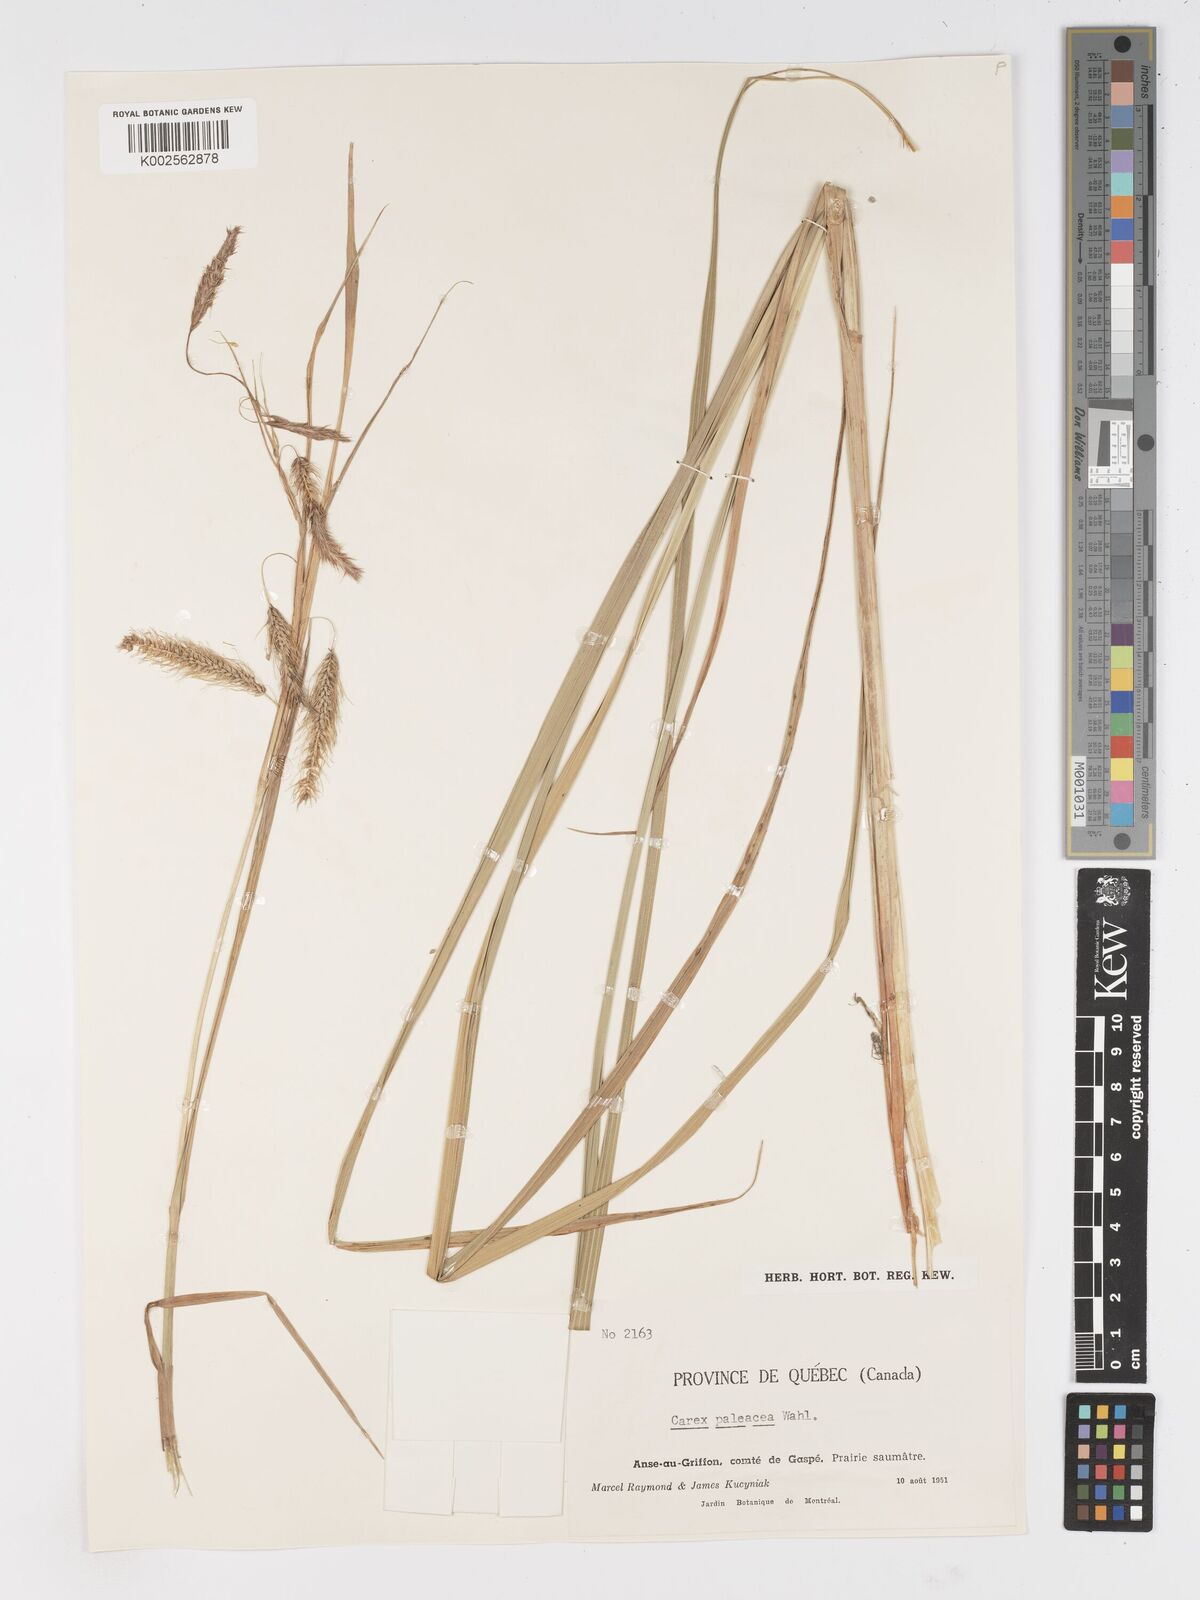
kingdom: Plantae
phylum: Tracheophyta
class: Liliopsida
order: Poales
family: Cyperaceae
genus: Carex
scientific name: Carex paleacea
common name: Chaffy sedge
